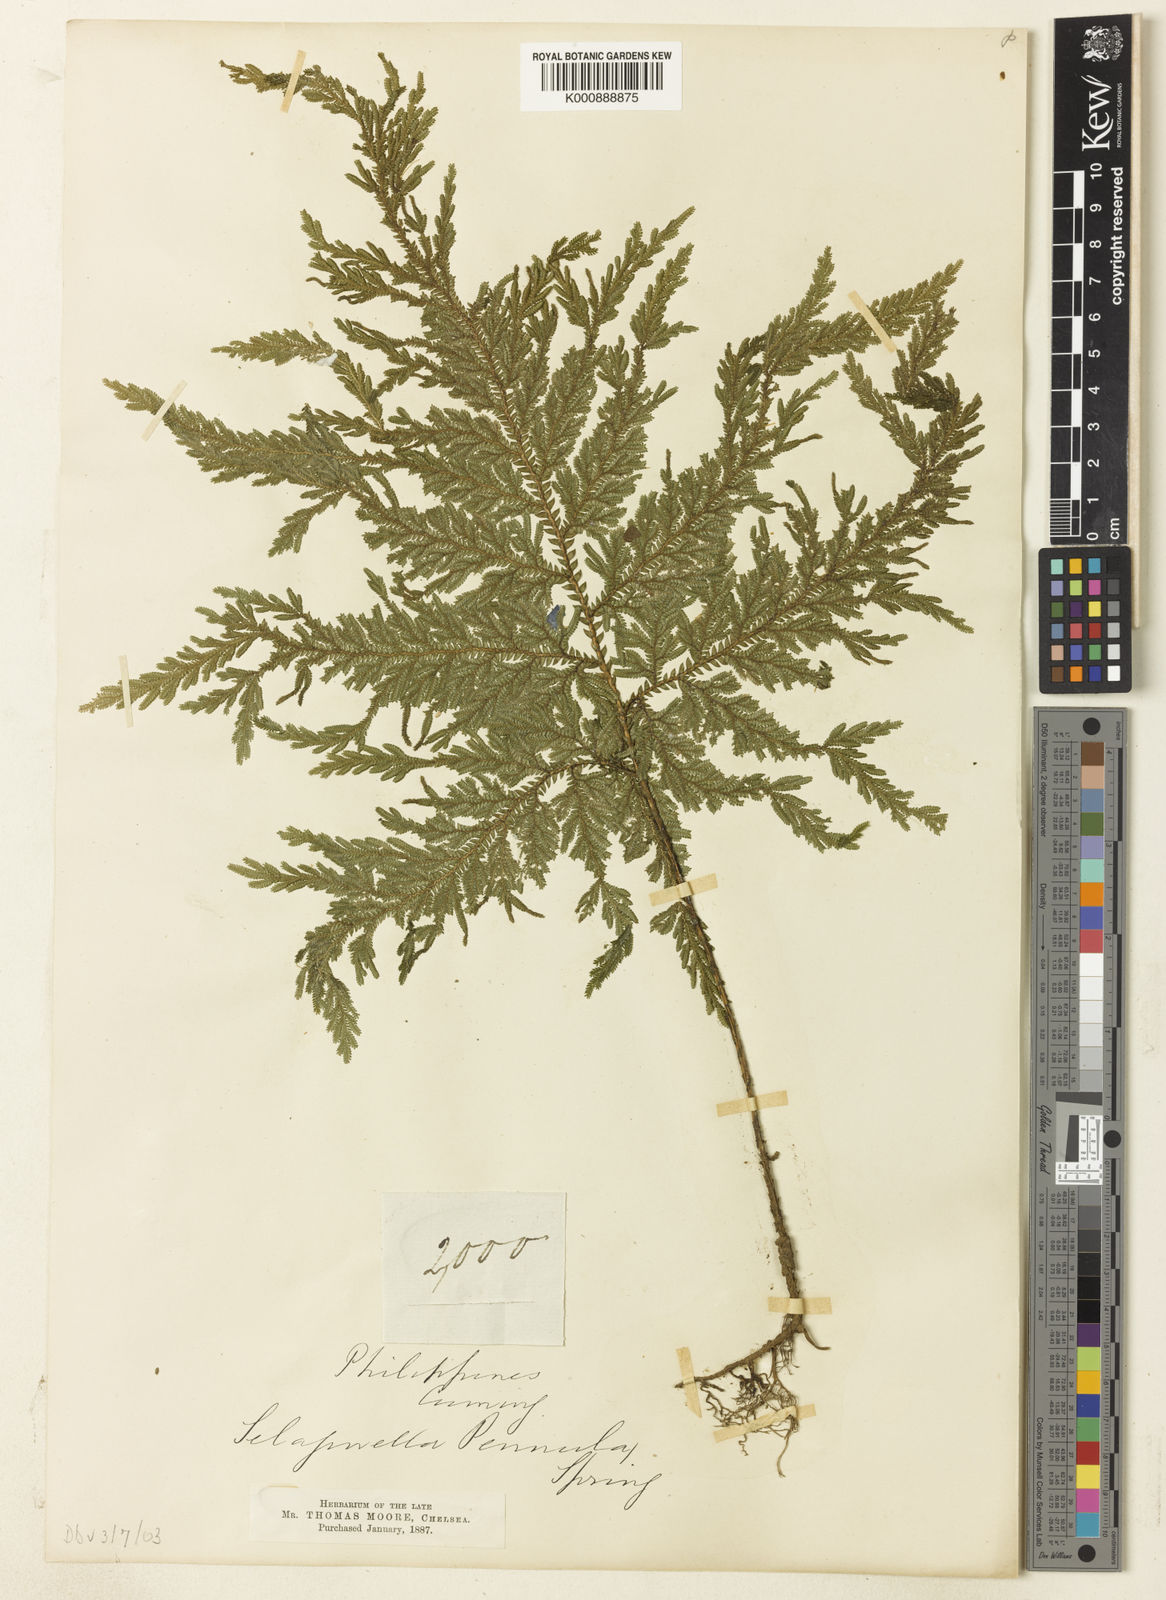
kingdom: Plantae
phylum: Tracheophyta
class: Lycopodiopsida
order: Selaginellales
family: Selaginellaceae
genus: Selaginella
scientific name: Selaginella involvens
